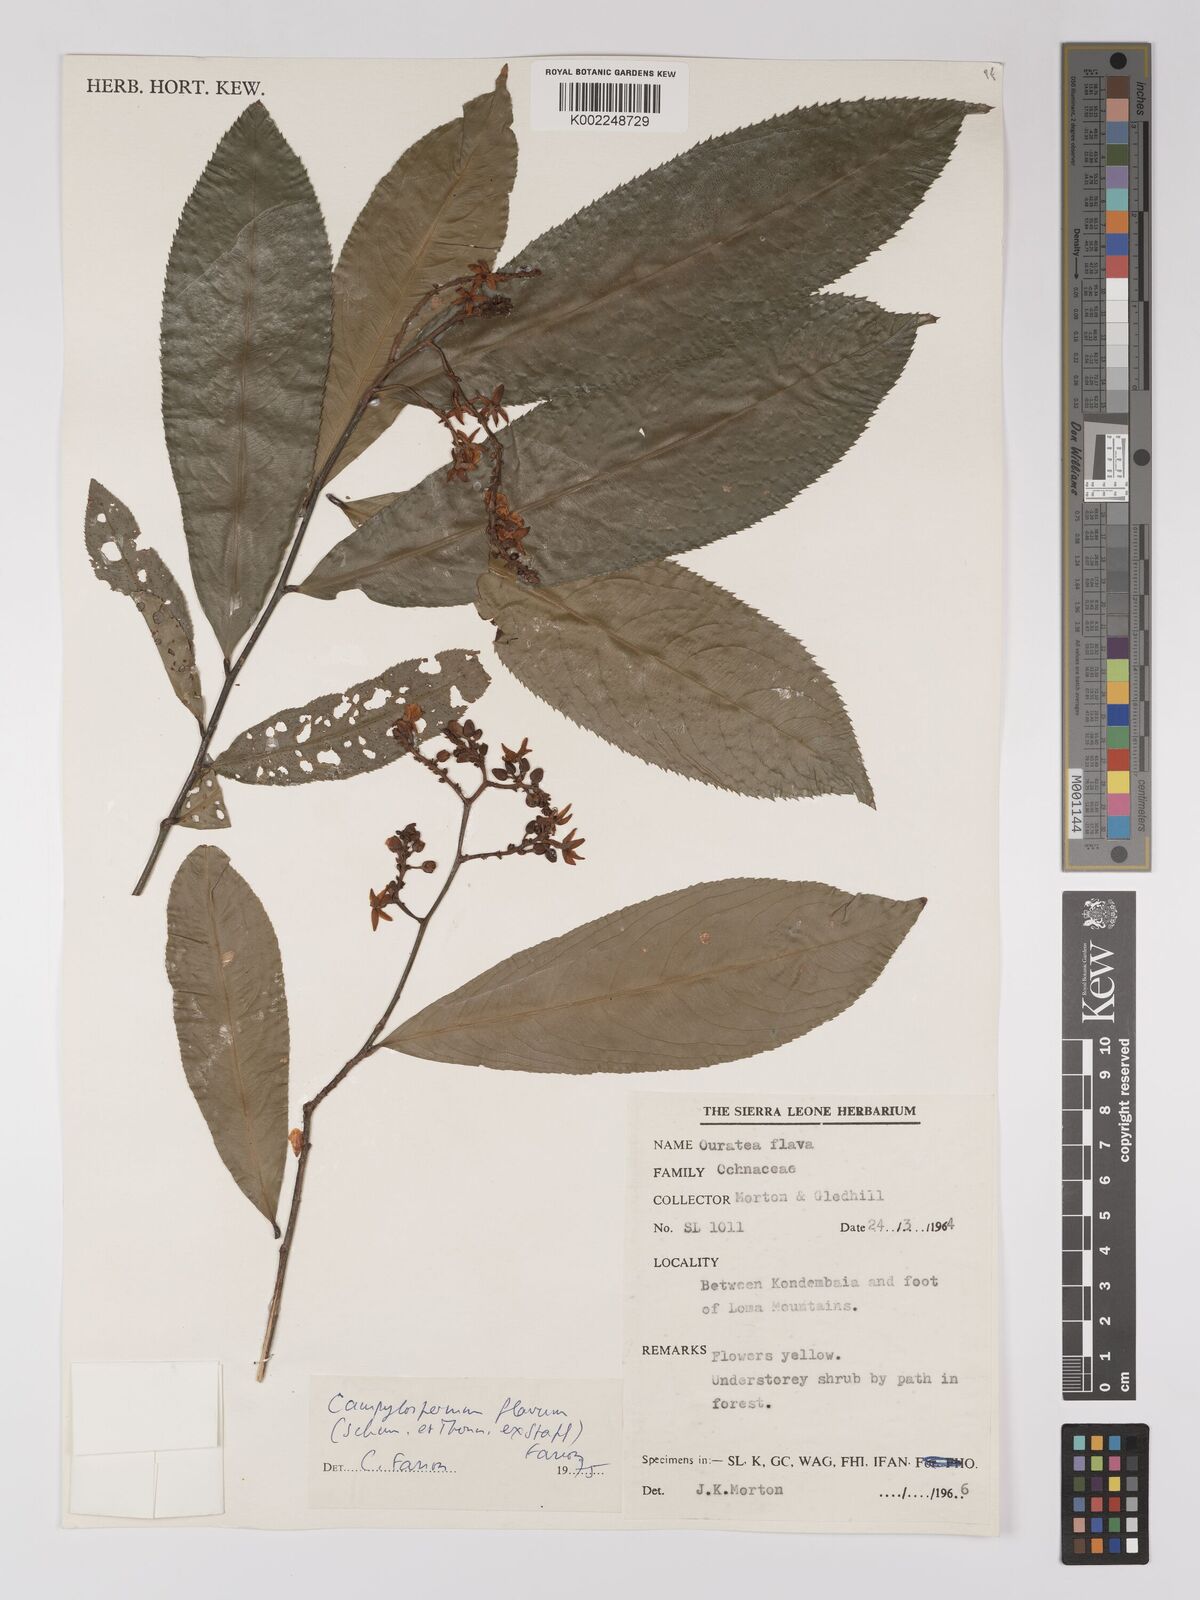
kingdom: Plantae
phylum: Tracheophyta
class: Magnoliopsida
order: Malpighiales
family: Ochnaceae
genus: Campylospermum
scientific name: Campylospermum flavum
